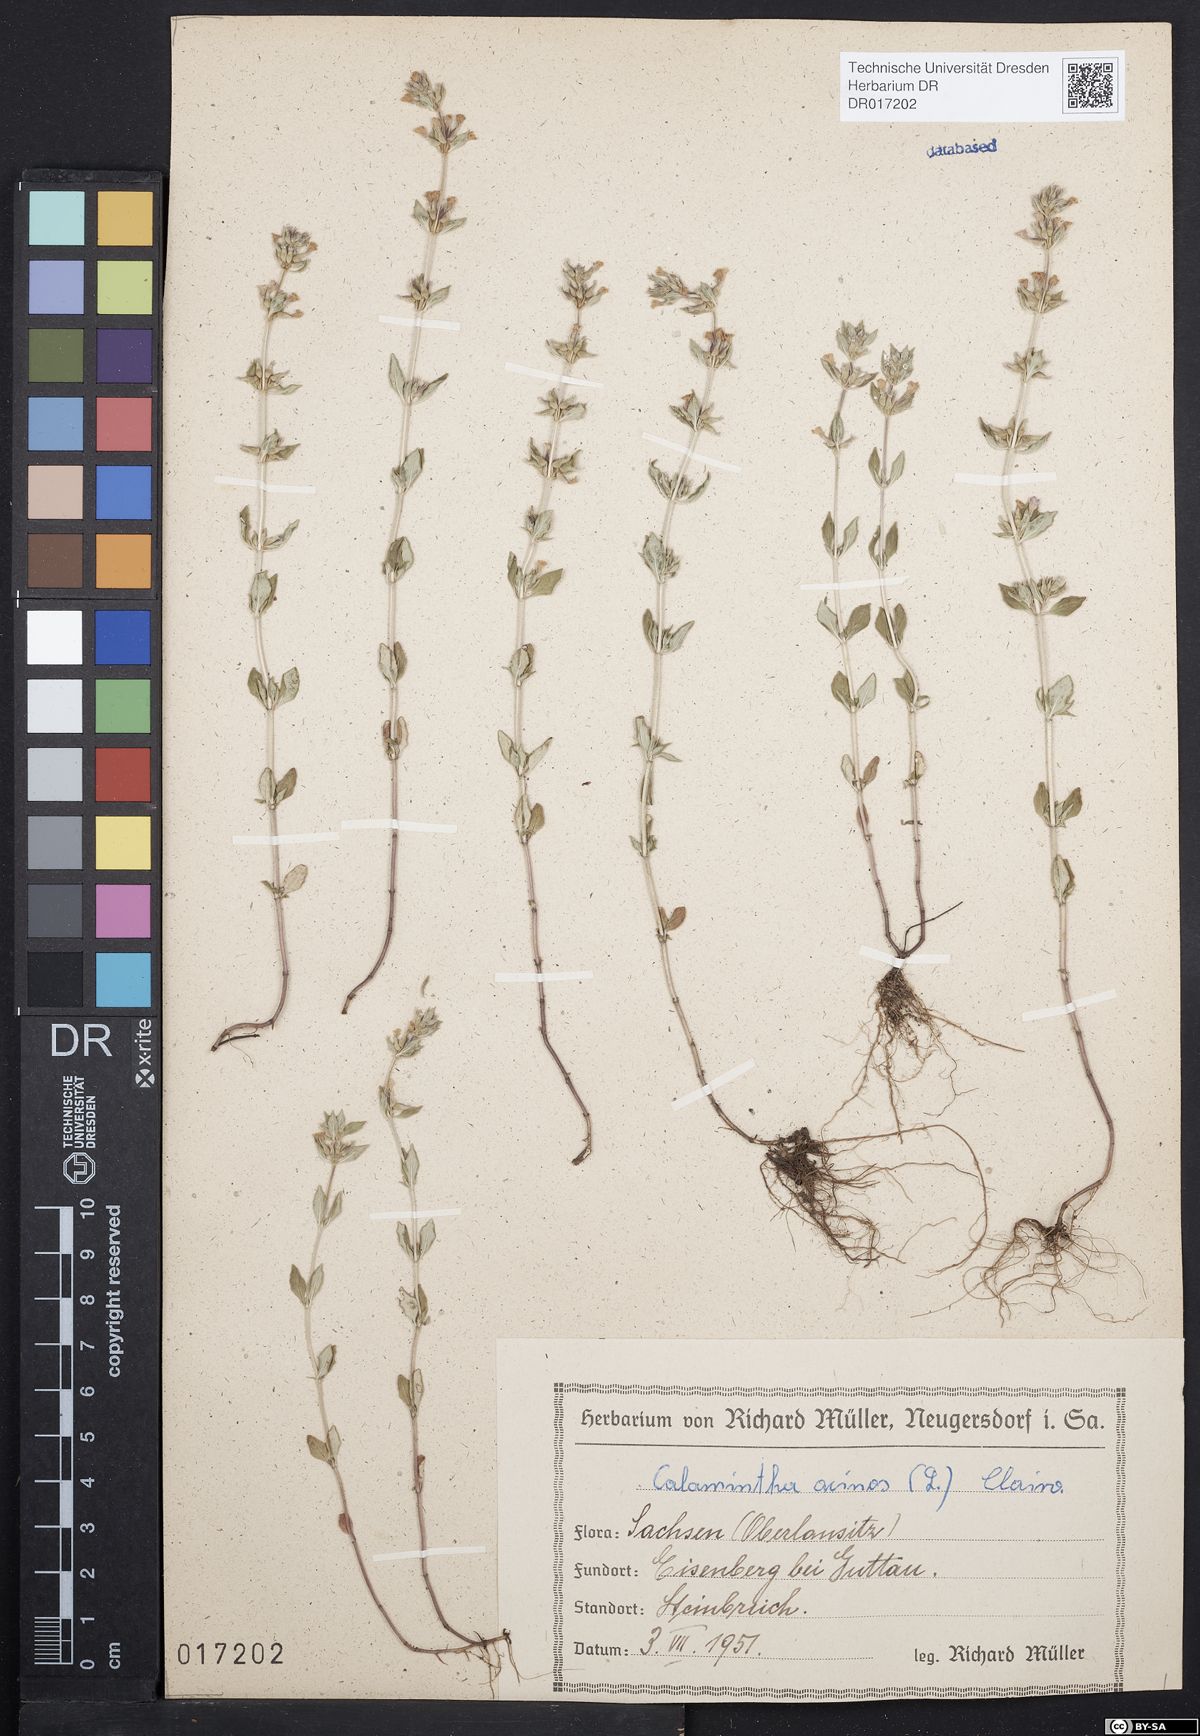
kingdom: Plantae
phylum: Tracheophyta
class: Magnoliopsida
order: Lamiales
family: Lamiaceae
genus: Clinopodium
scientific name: Clinopodium acinos
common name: Basil thyme
